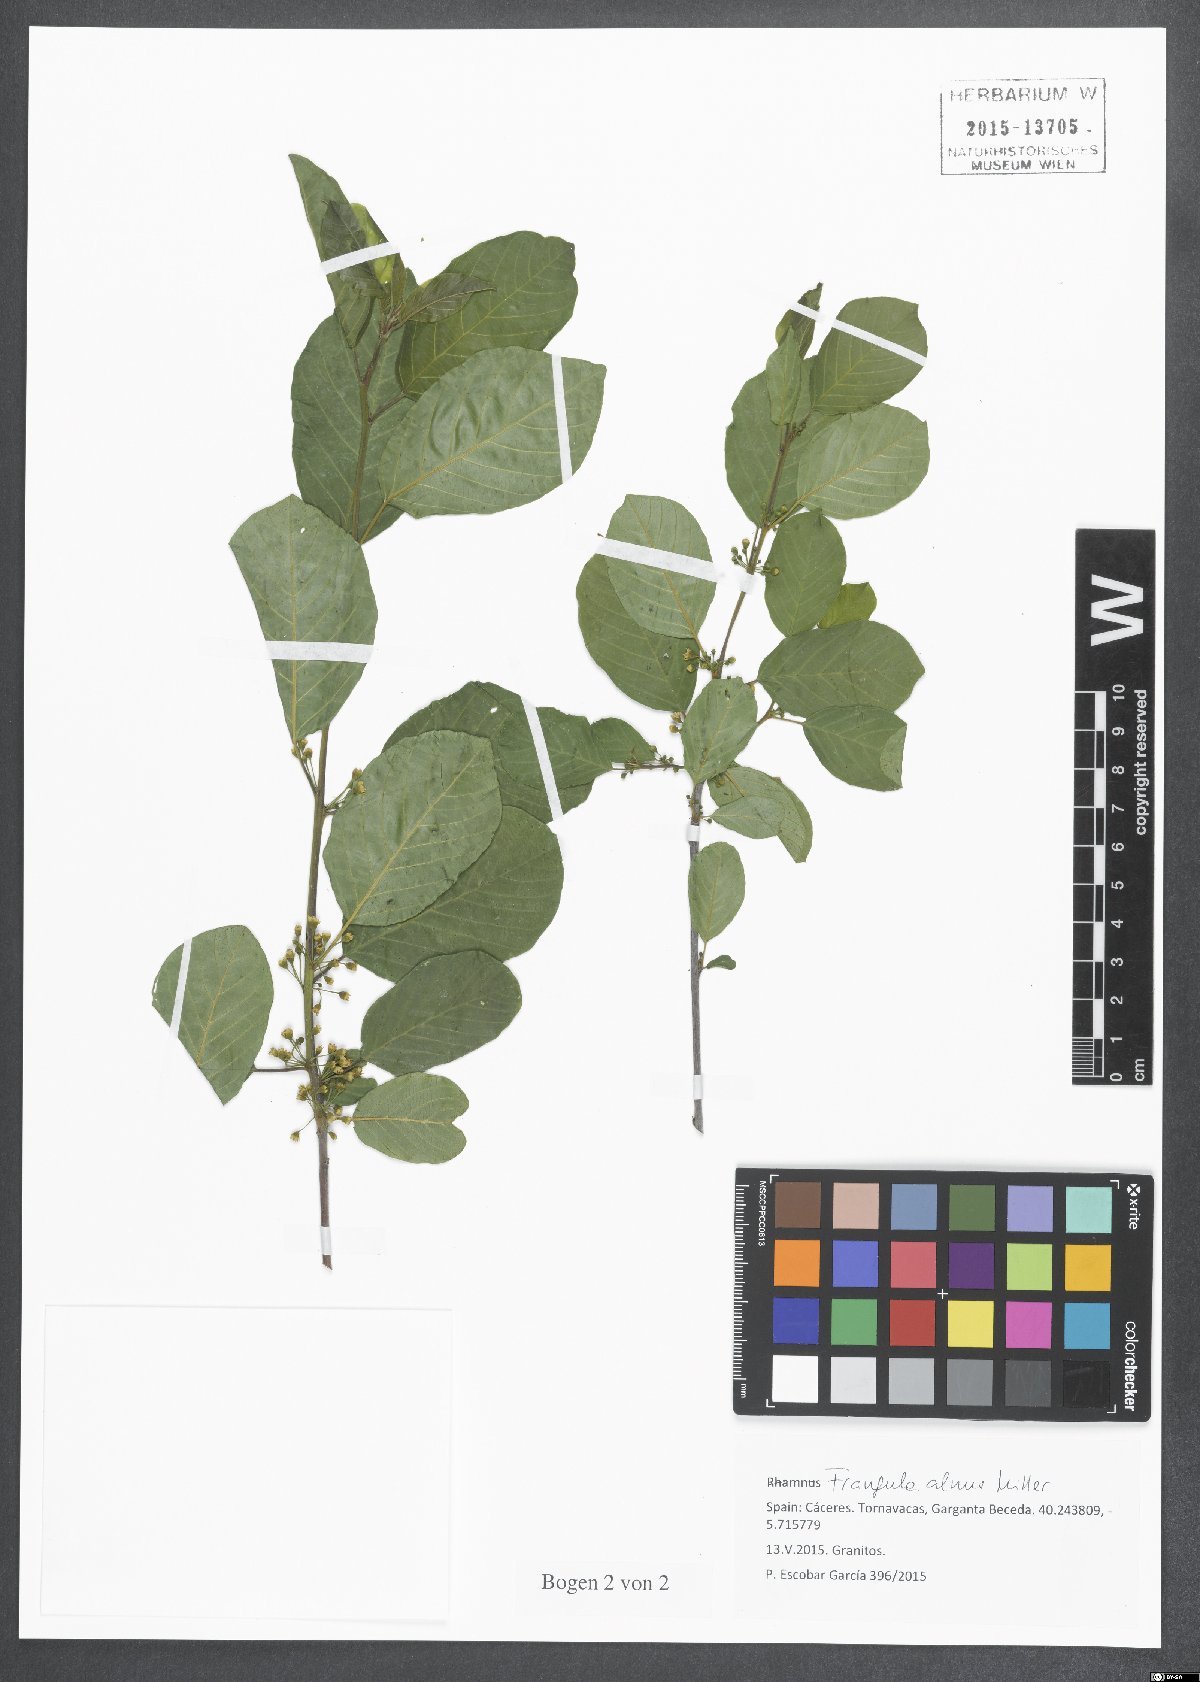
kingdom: Plantae
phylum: Tracheophyta
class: Magnoliopsida
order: Rosales
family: Rhamnaceae
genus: Frangula
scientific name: Frangula alnus
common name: Alder buckthorn
